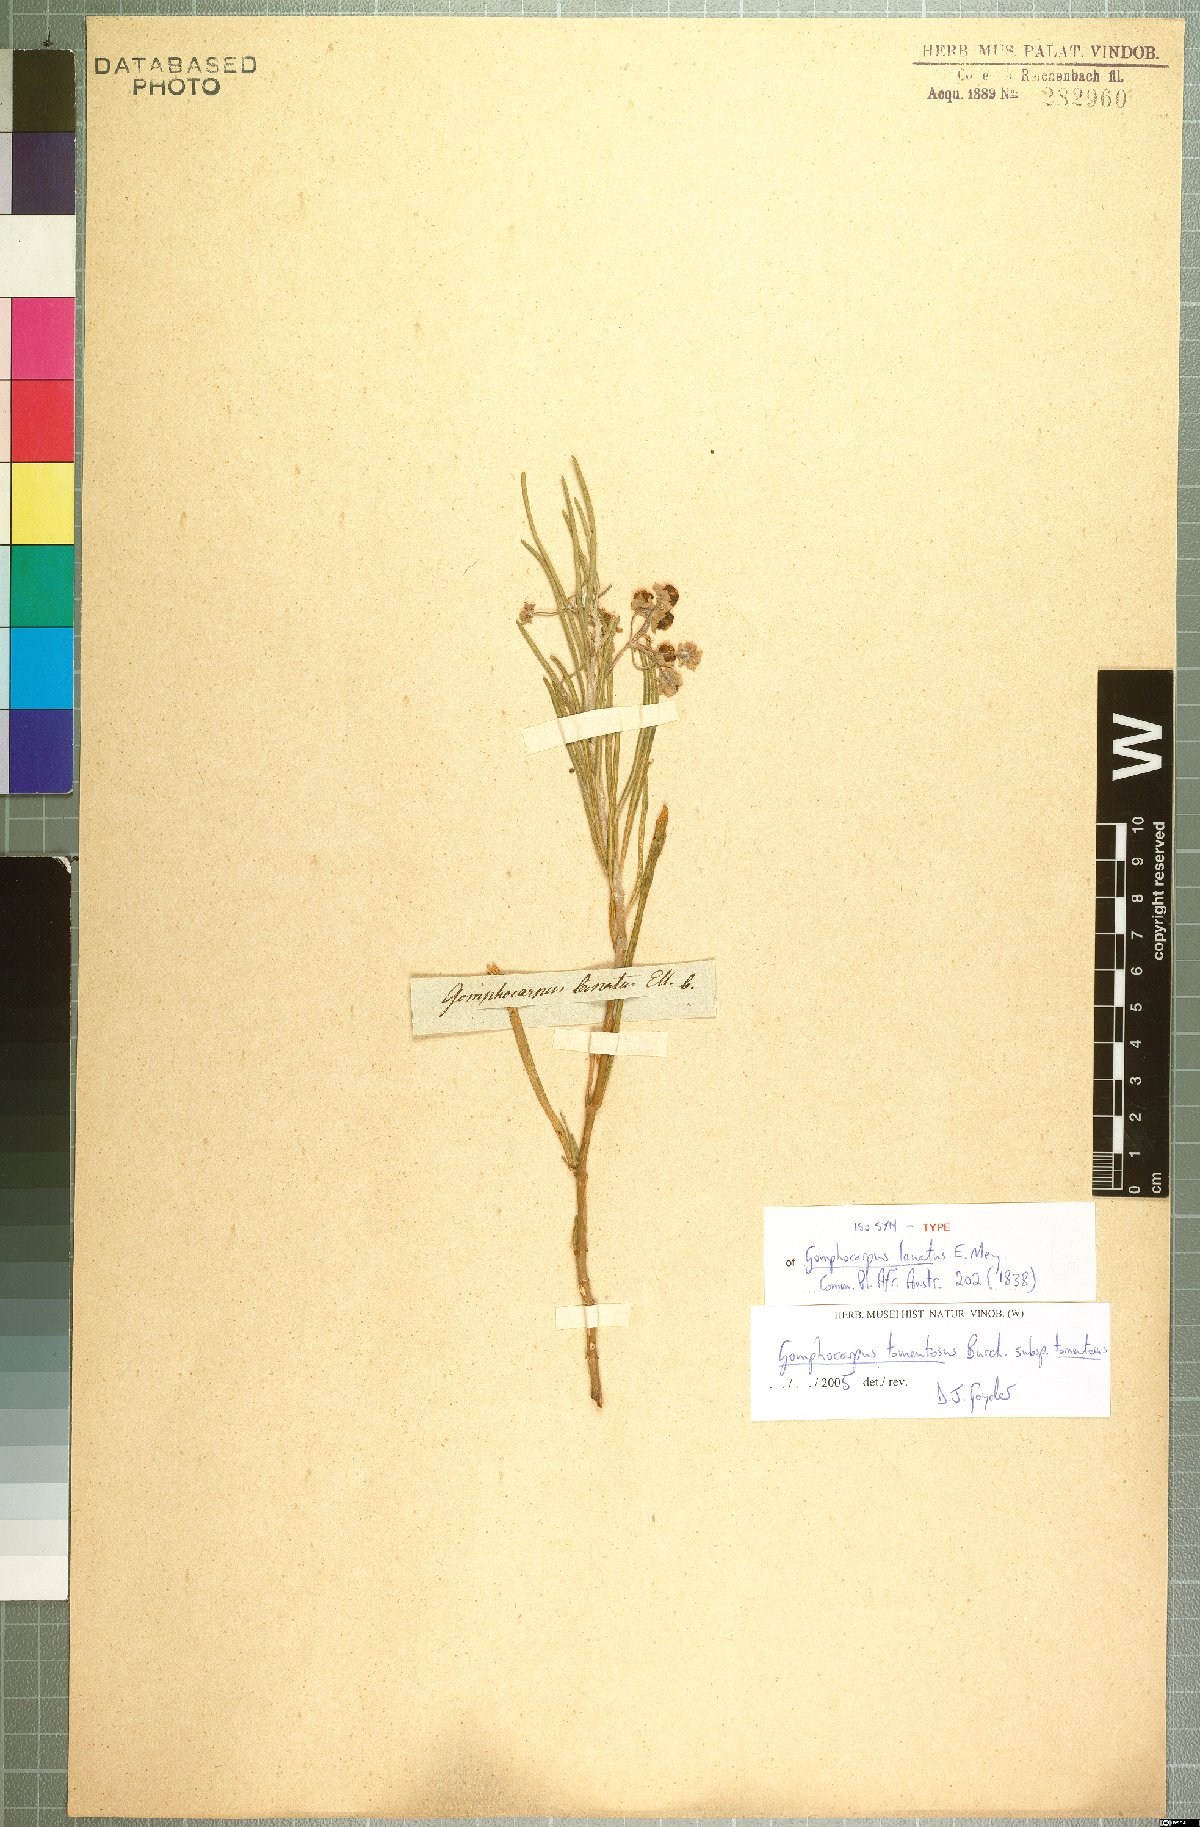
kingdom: Plantae
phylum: Tracheophyta
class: Magnoliopsida
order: Gentianales
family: Apocynaceae
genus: Gomphocarpus
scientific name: Gomphocarpus tomentosus
